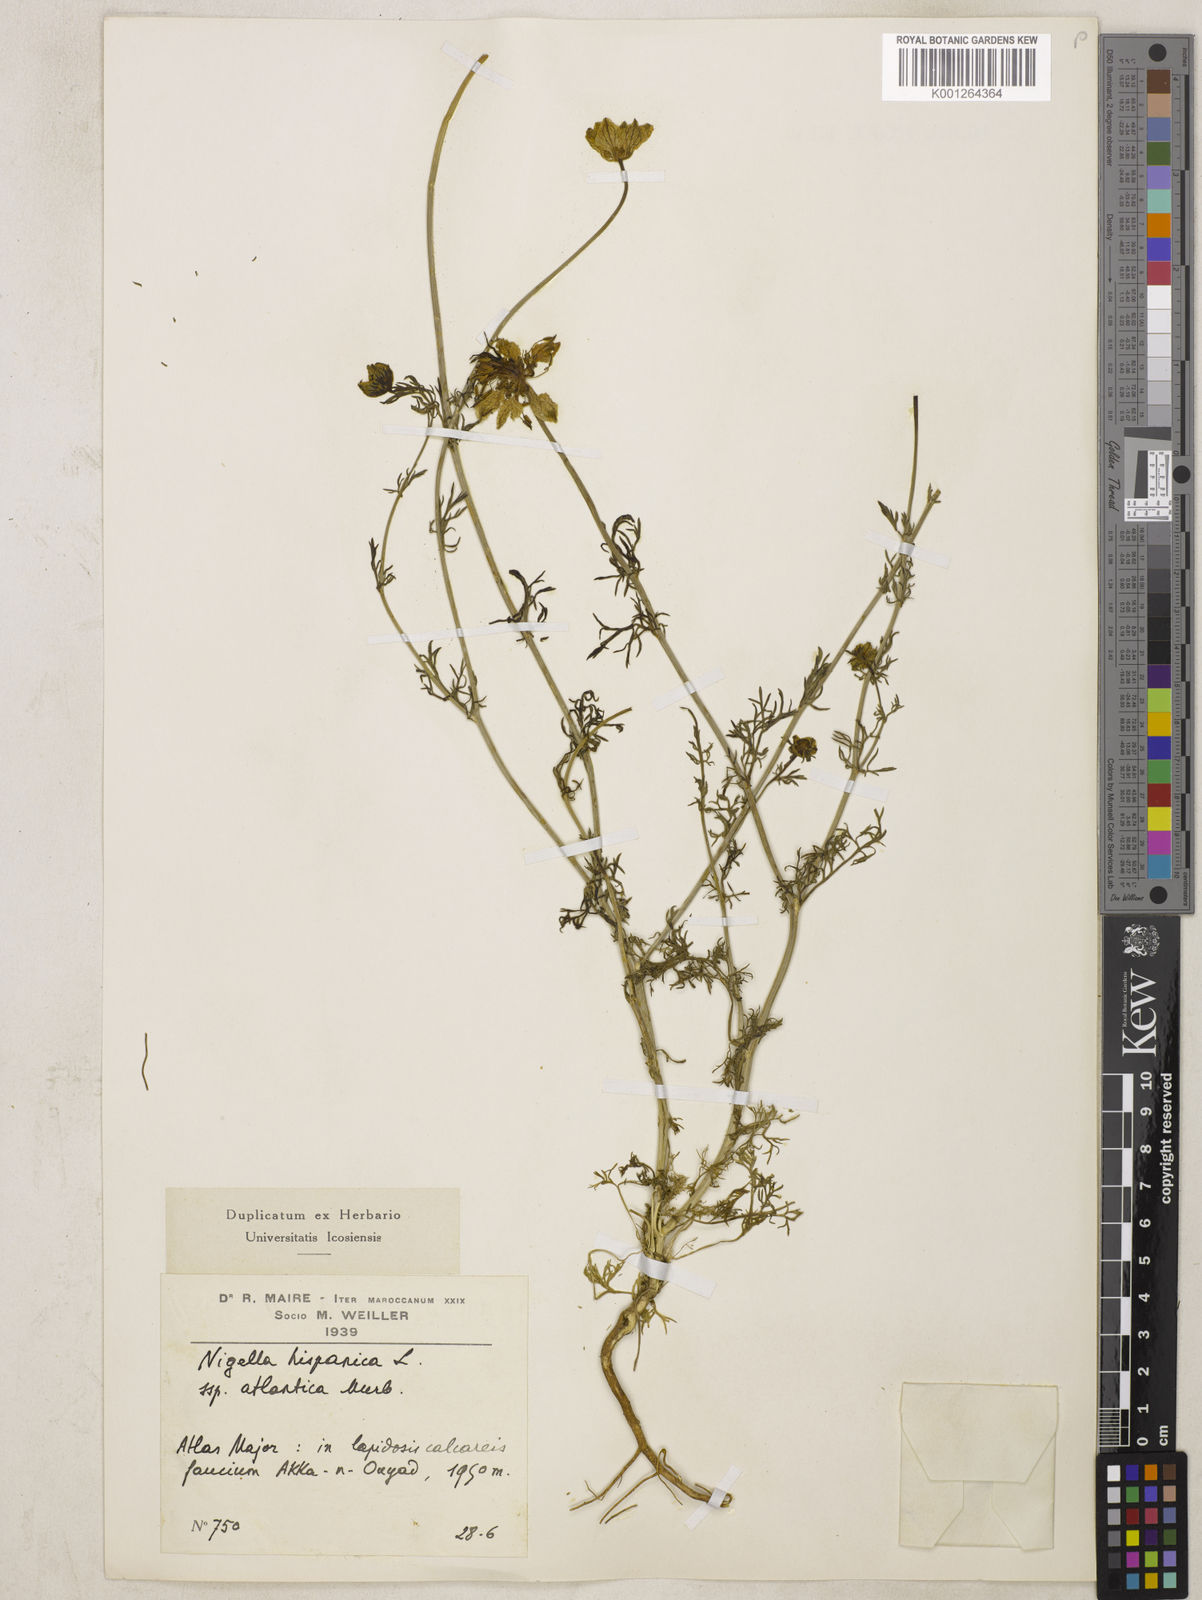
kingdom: Plantae
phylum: Tracheophyta
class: Magnoliopsida
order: Ranunculales
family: Ranunculaceae
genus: Nigella
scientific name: Nigella hispanica
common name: Fennel-flower
